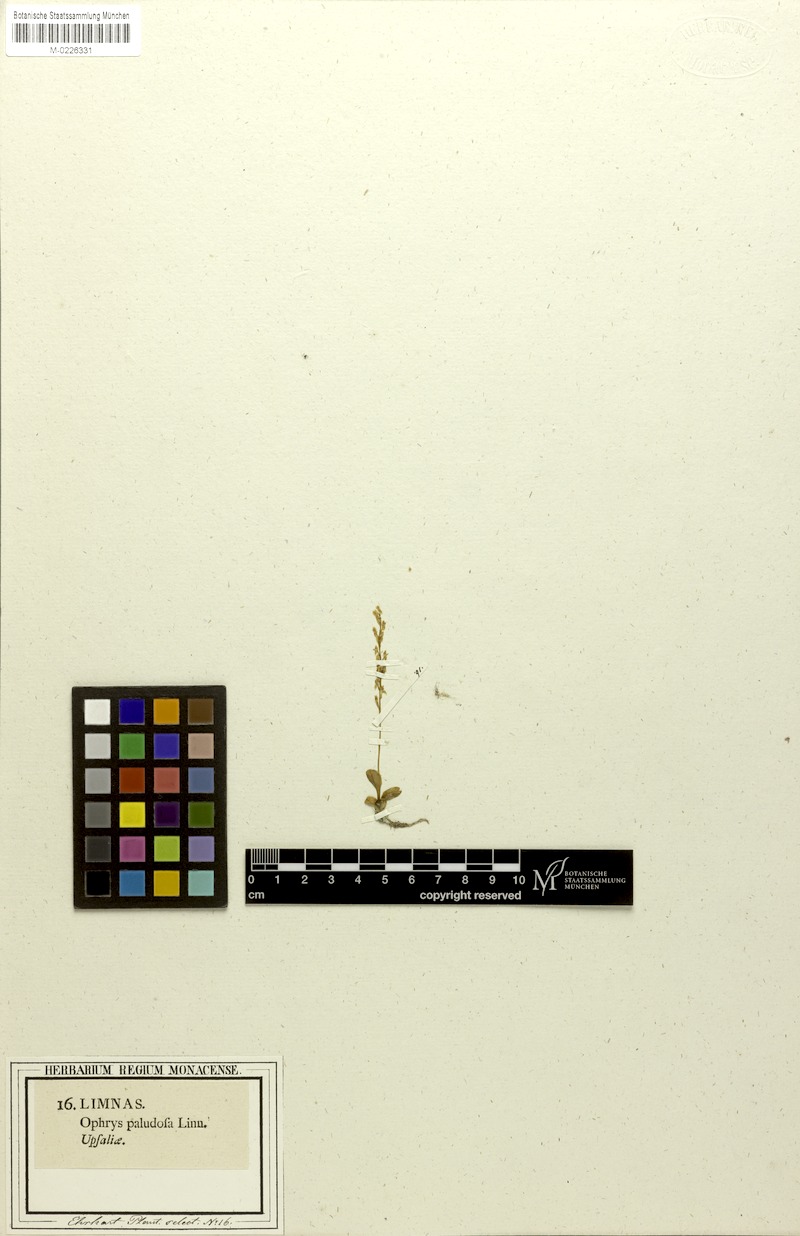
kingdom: Plantae
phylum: Tracheophyta
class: Liliopsida
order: Asparagales
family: Orchidaceae
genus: Hammarbya
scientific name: Hammarbya paludosa
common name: Bog orchid
